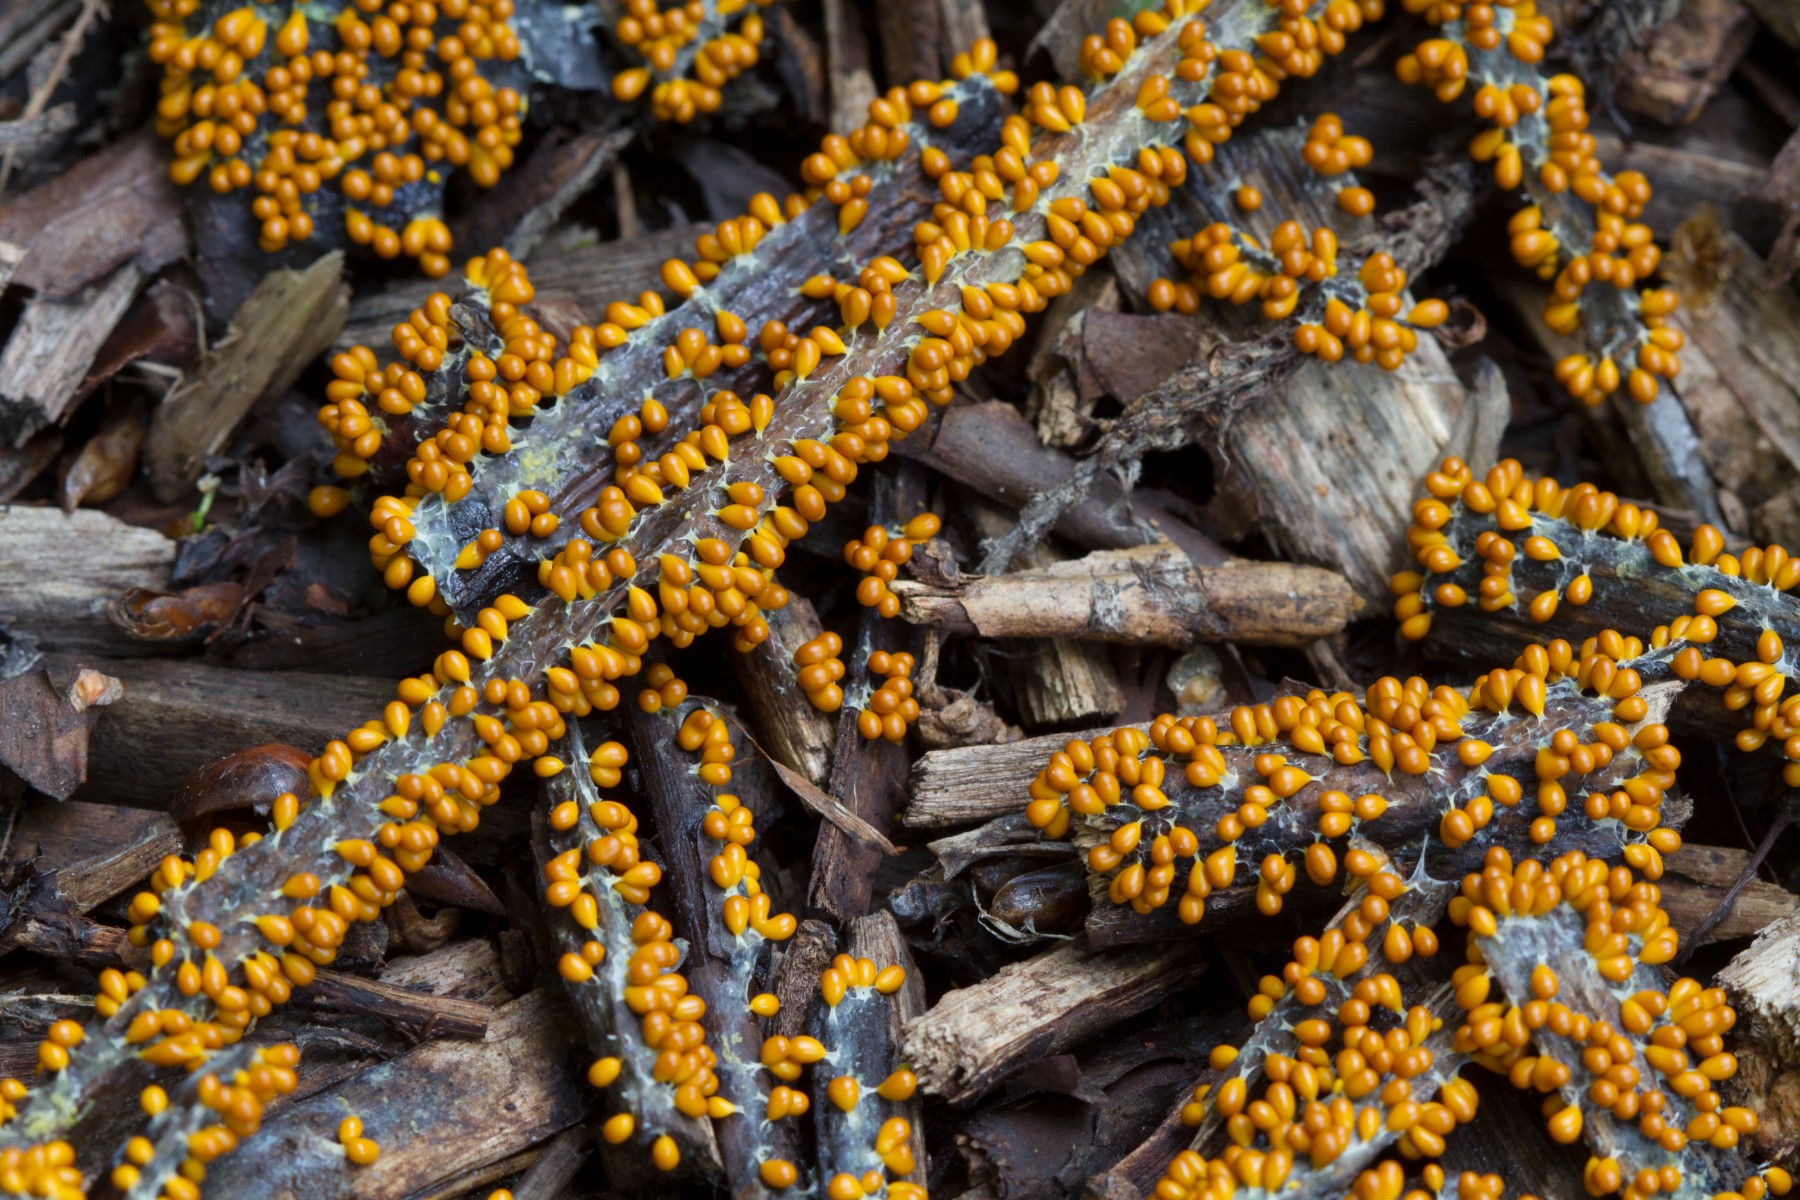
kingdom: Protozoa
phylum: Mycetozoa
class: Myxomycetes
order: Physarales
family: Physaraceae
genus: Leocarpus
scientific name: Leocarpus fragilis
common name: poleret glatfrø
